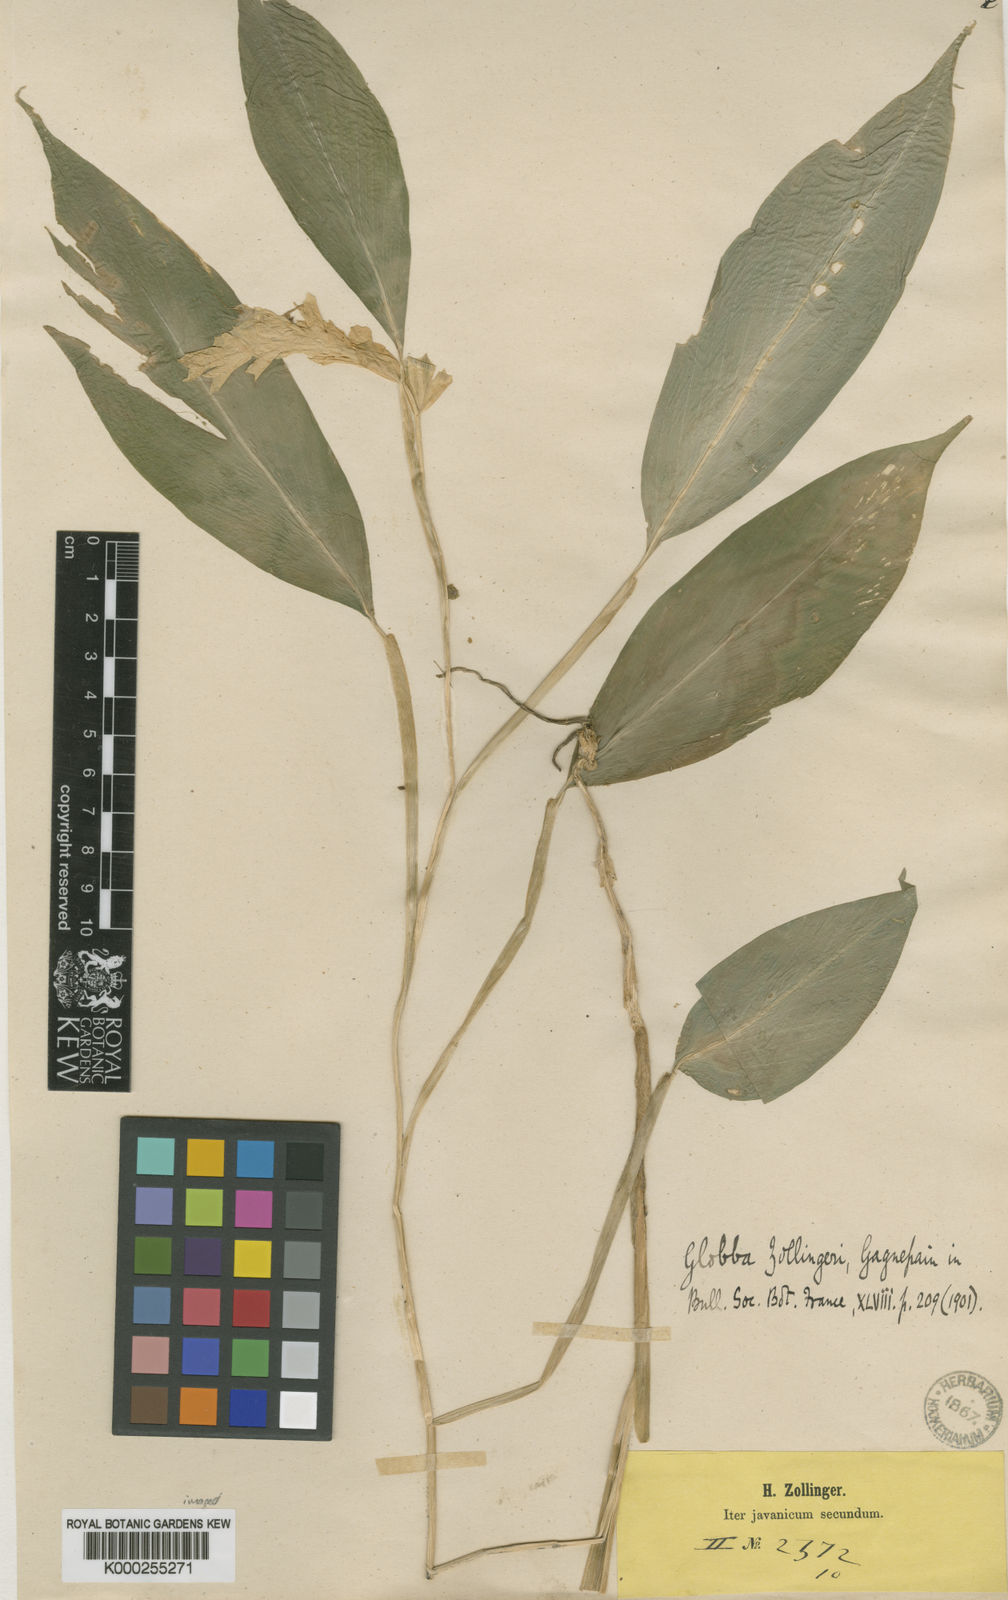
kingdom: Plantae
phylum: Tracheophyta
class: Liliopsida
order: Zingiberales
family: Zingiberaceae
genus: Globba
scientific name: Globba marantina
